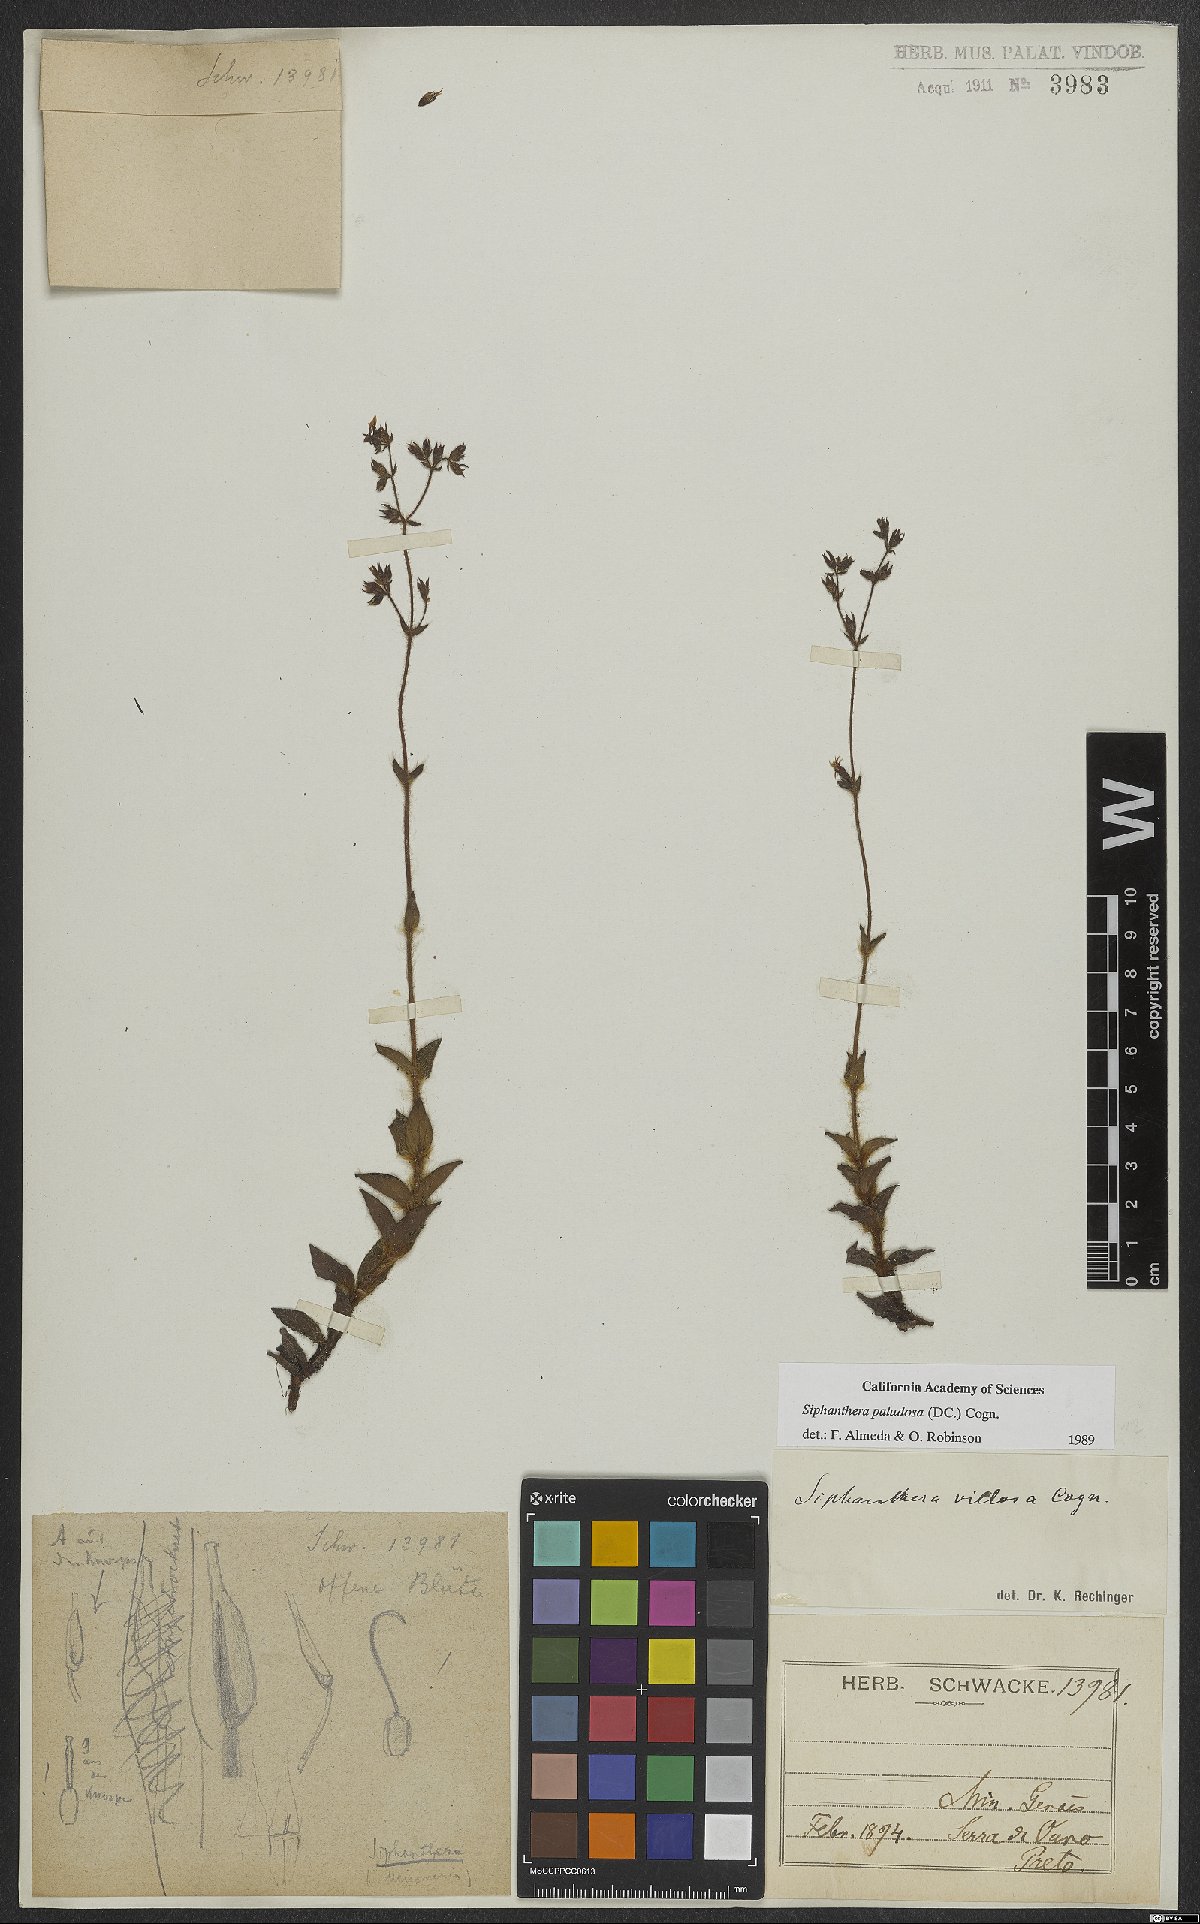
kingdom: Plantae
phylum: Tracheophyta
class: Magnoliopsida
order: Myrtales
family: Melastomataceae
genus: Siphanthera
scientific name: Siphanthera paludosa
